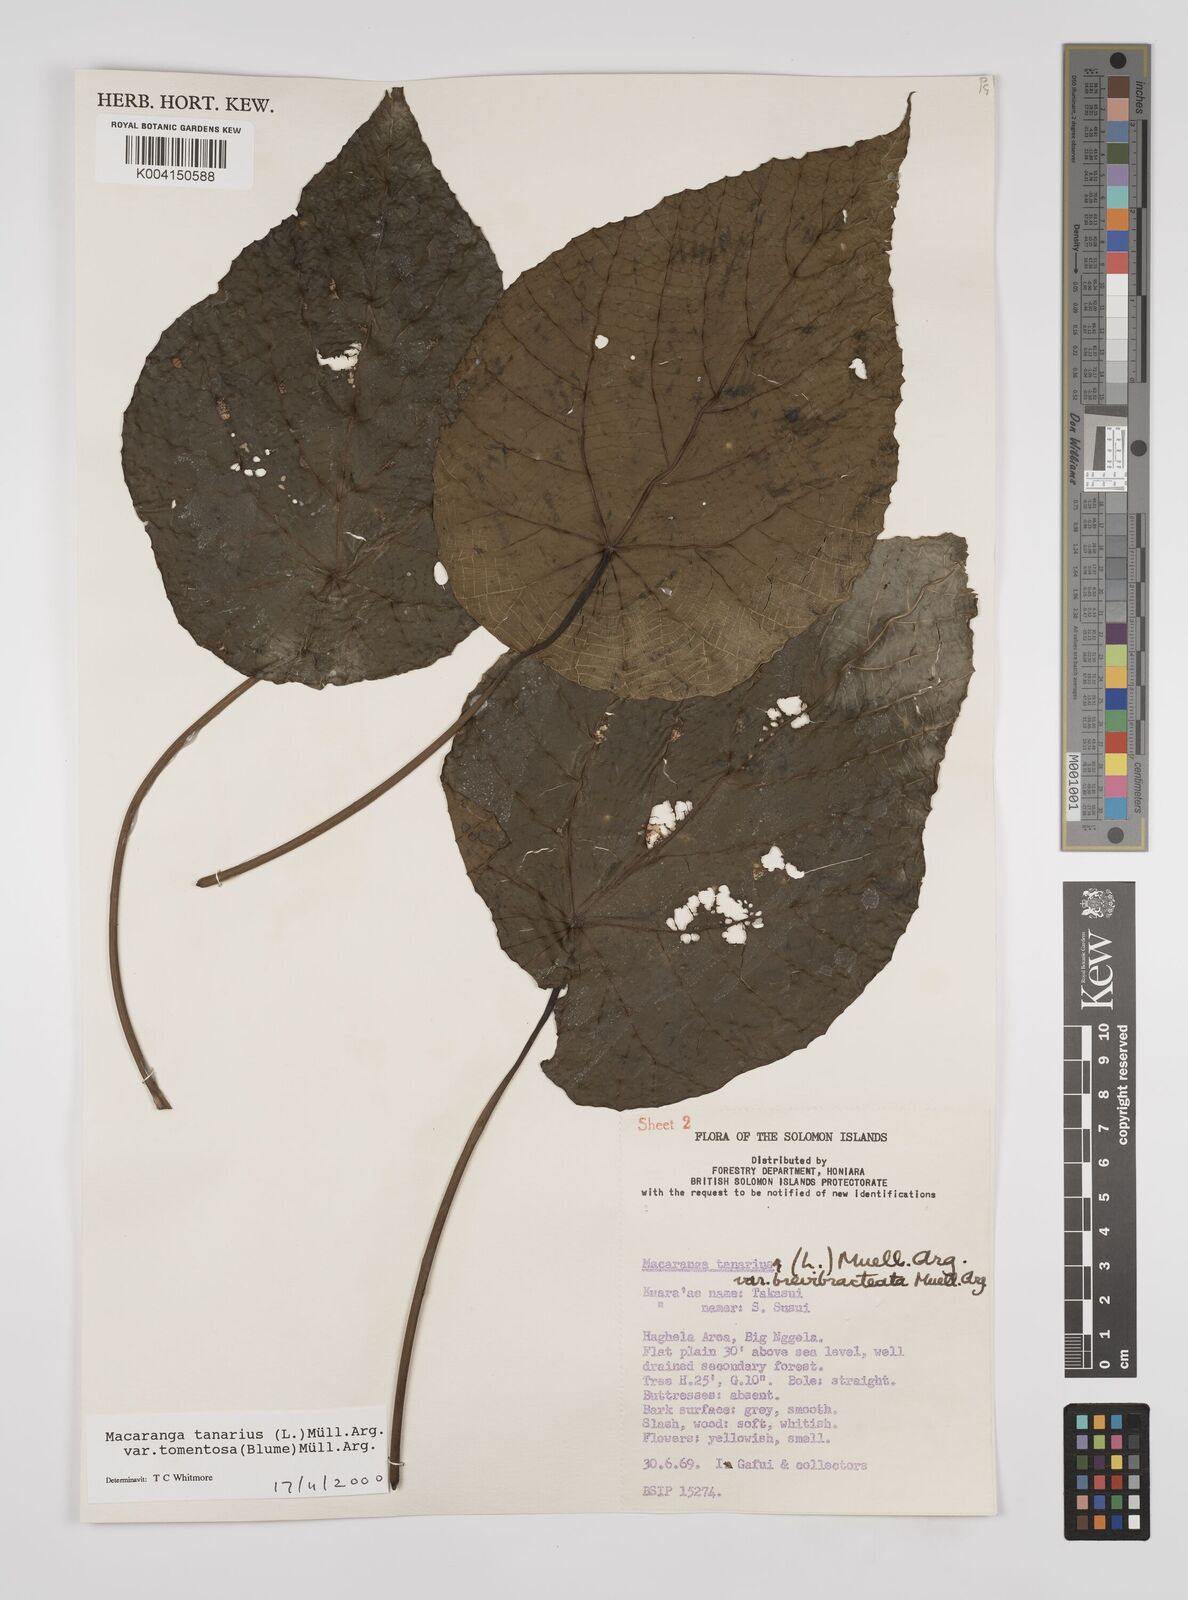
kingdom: Plantae
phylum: Tracheophyta
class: Magnoliopsida
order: Malpighiales
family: Euphorbiaceae
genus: Macaranga
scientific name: Macaranga tanarius
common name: Parasol leaf tree
